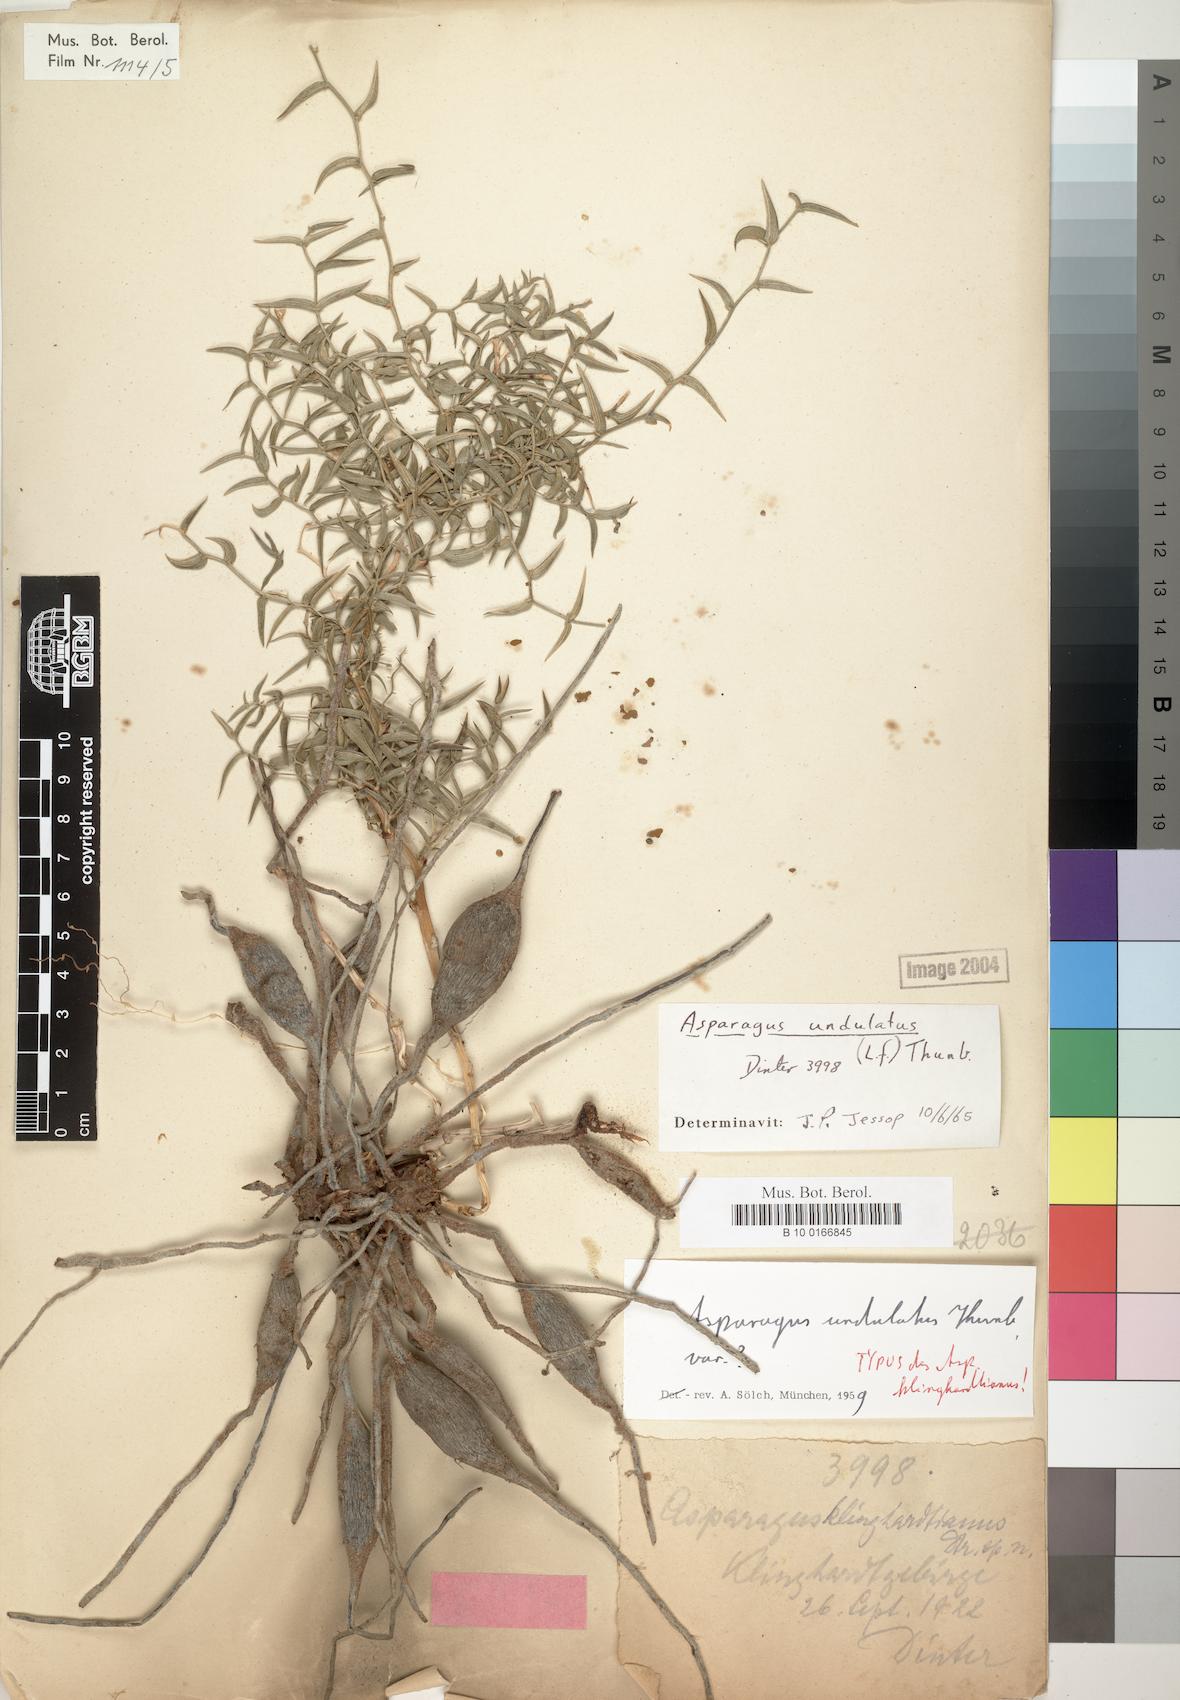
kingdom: Plantae
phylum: Tracheophyta
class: Liliopsida
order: Asparagales
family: Asparagaceae
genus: Asparagus
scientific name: Asparagus undulatus
